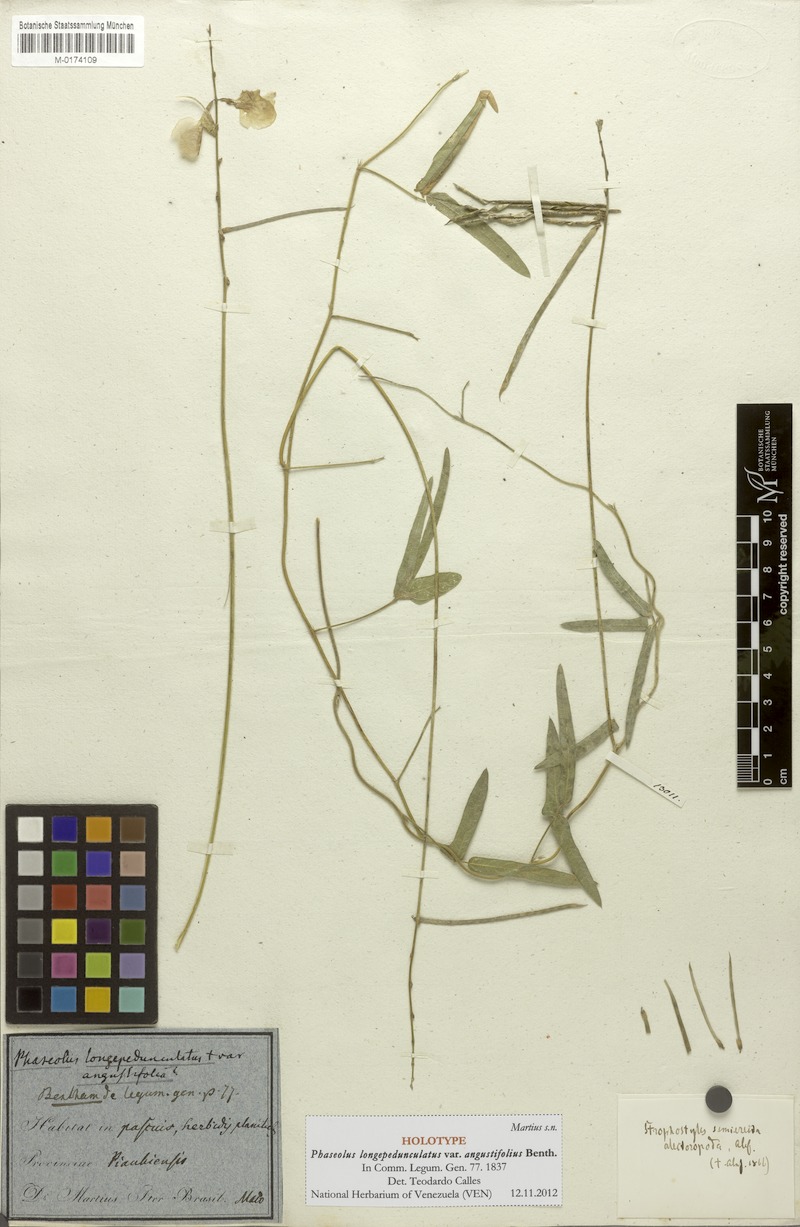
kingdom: Plantae
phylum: Tracheophyta
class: Magnoliopsida
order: Fabales
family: Fabaceae
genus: Macroptilium
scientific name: Macroptilium gracile
